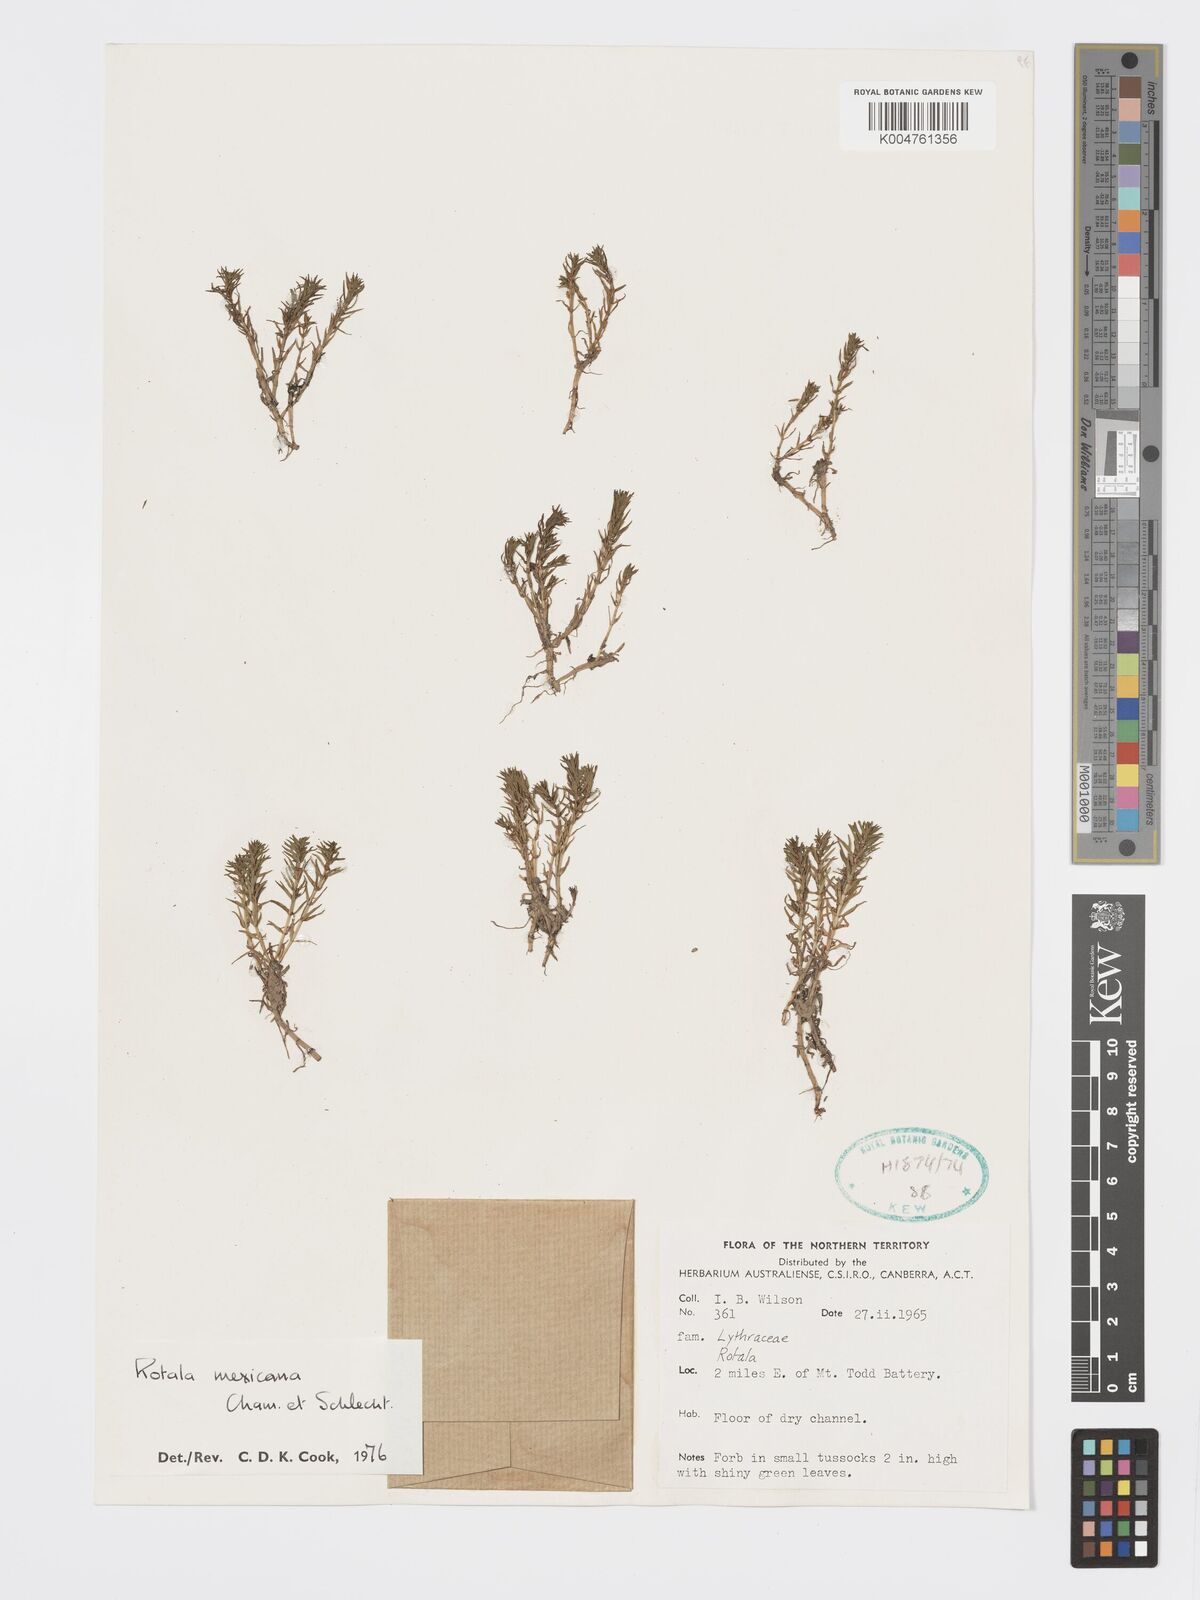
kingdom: Plantae
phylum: Tracheophyta
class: Magnoliopsida
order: Myrtales
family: Lythraceae
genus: Rotala
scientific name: Rotala mexicana
